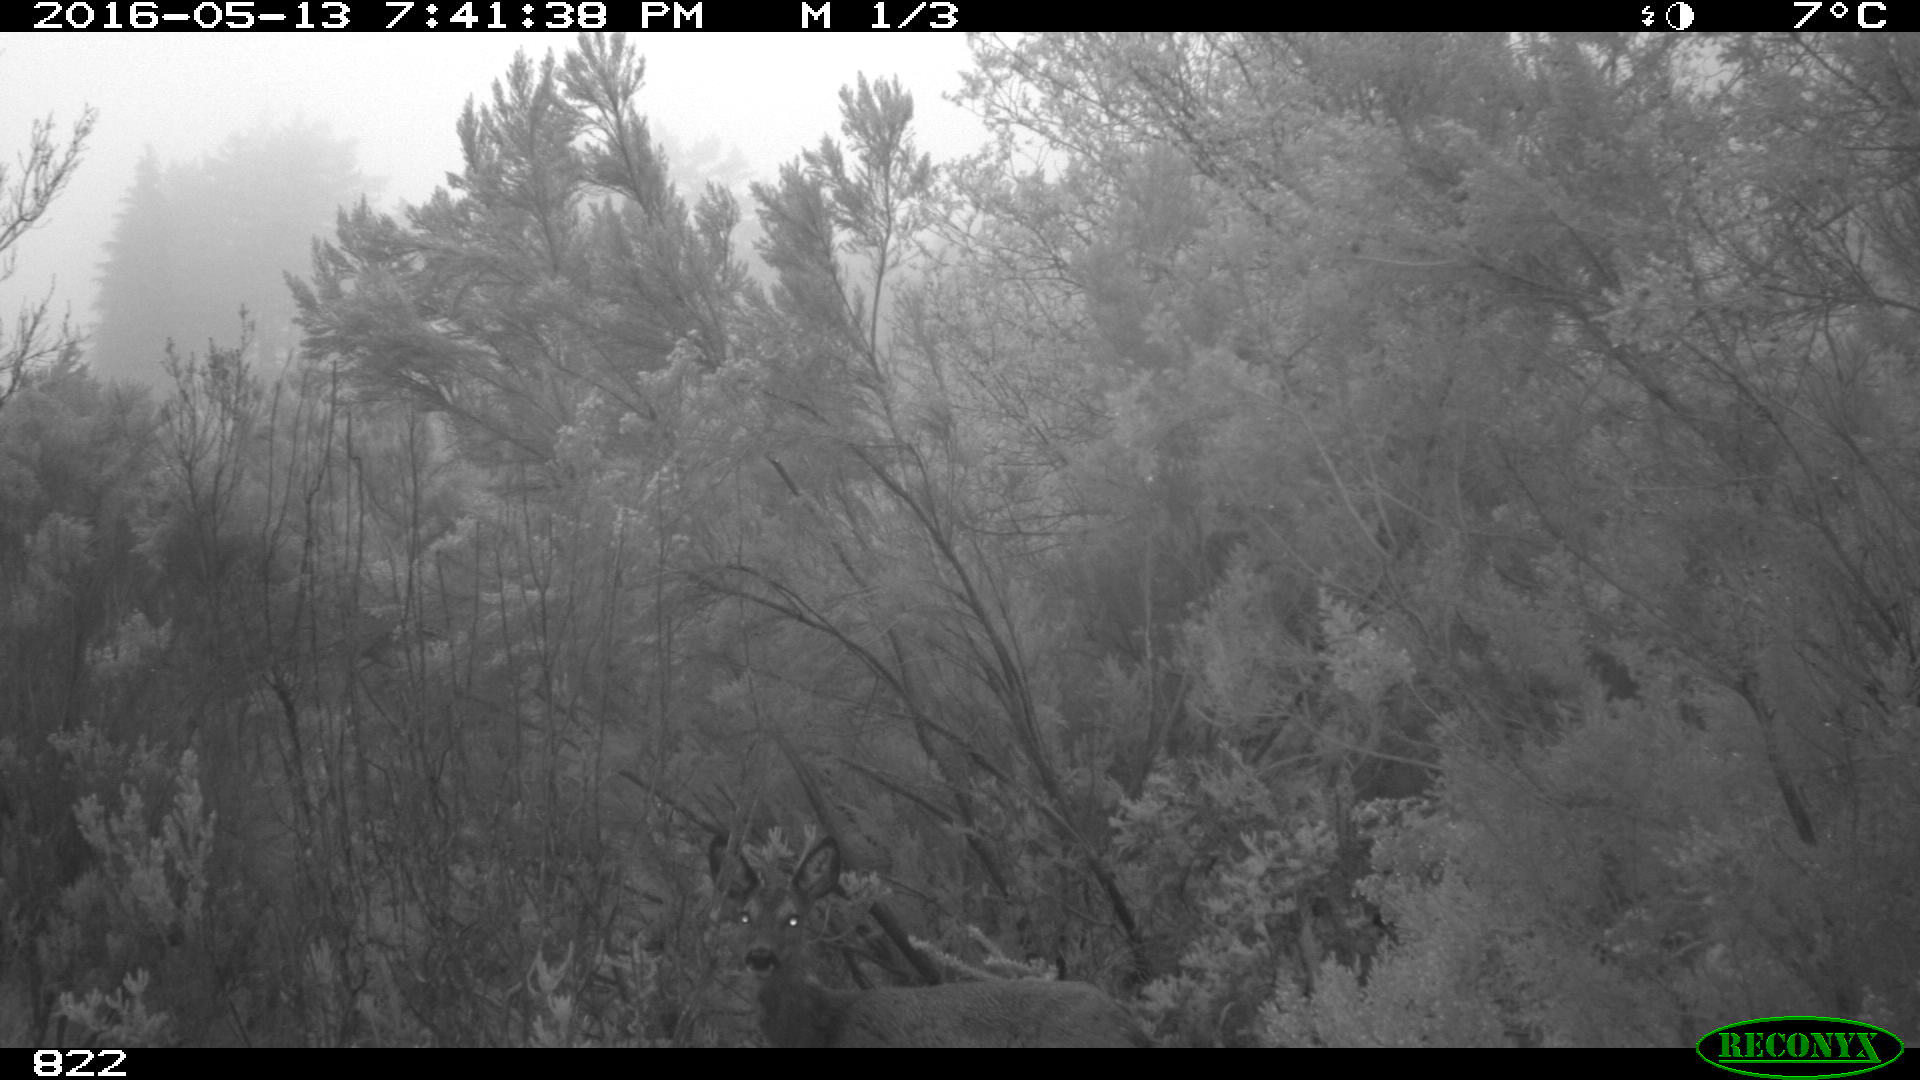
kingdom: Animalia
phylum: Chordata
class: Mammalia
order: Artiodactyla
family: Cervidae
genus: Capreolus
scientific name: Capreolus capreolus
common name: Western roe deer
